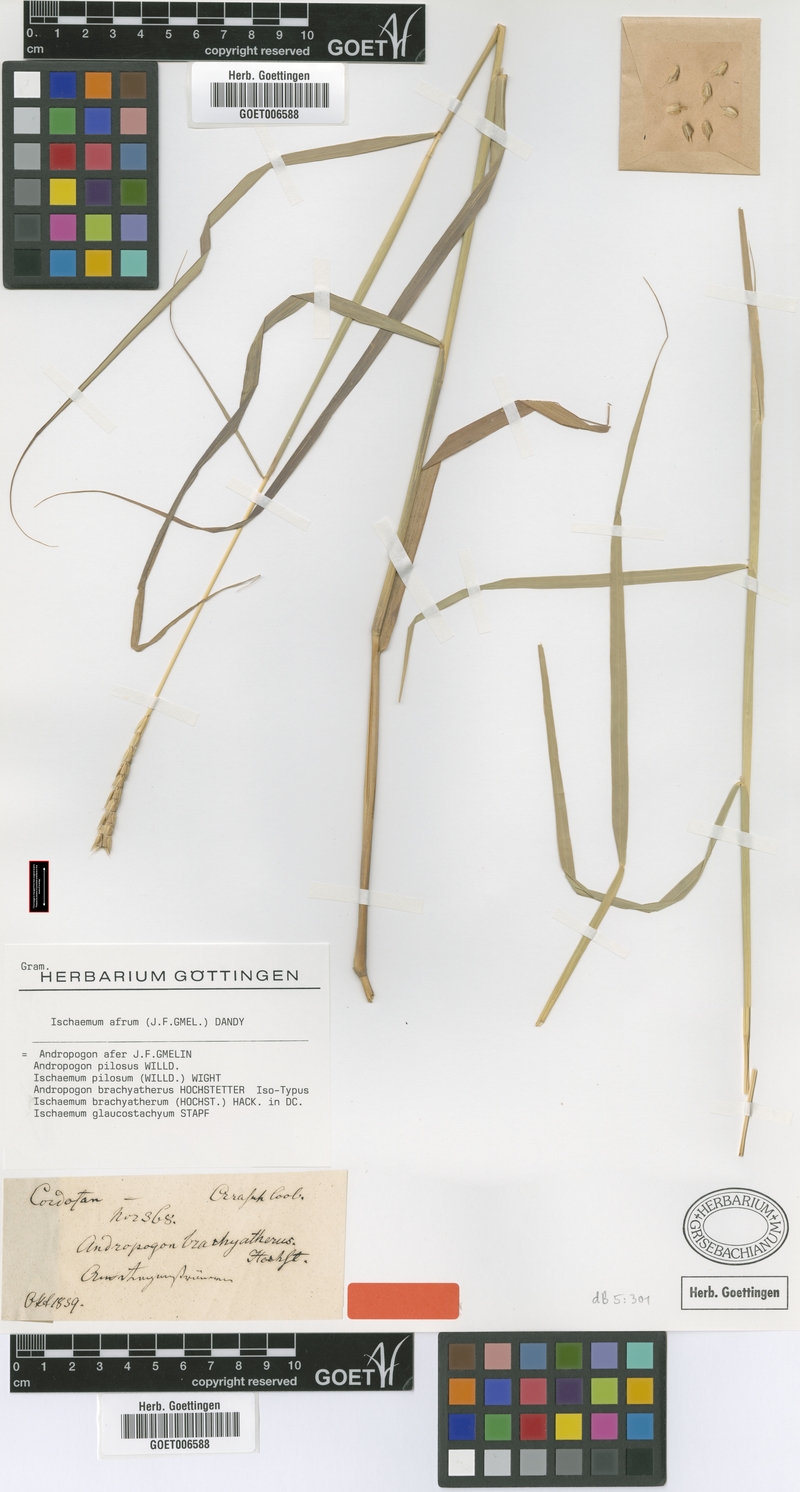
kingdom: Plantae
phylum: Tracheophyta
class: Liliopsida
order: Poales
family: Poaceae
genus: Ischaemum
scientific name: Ischaemum afrum
